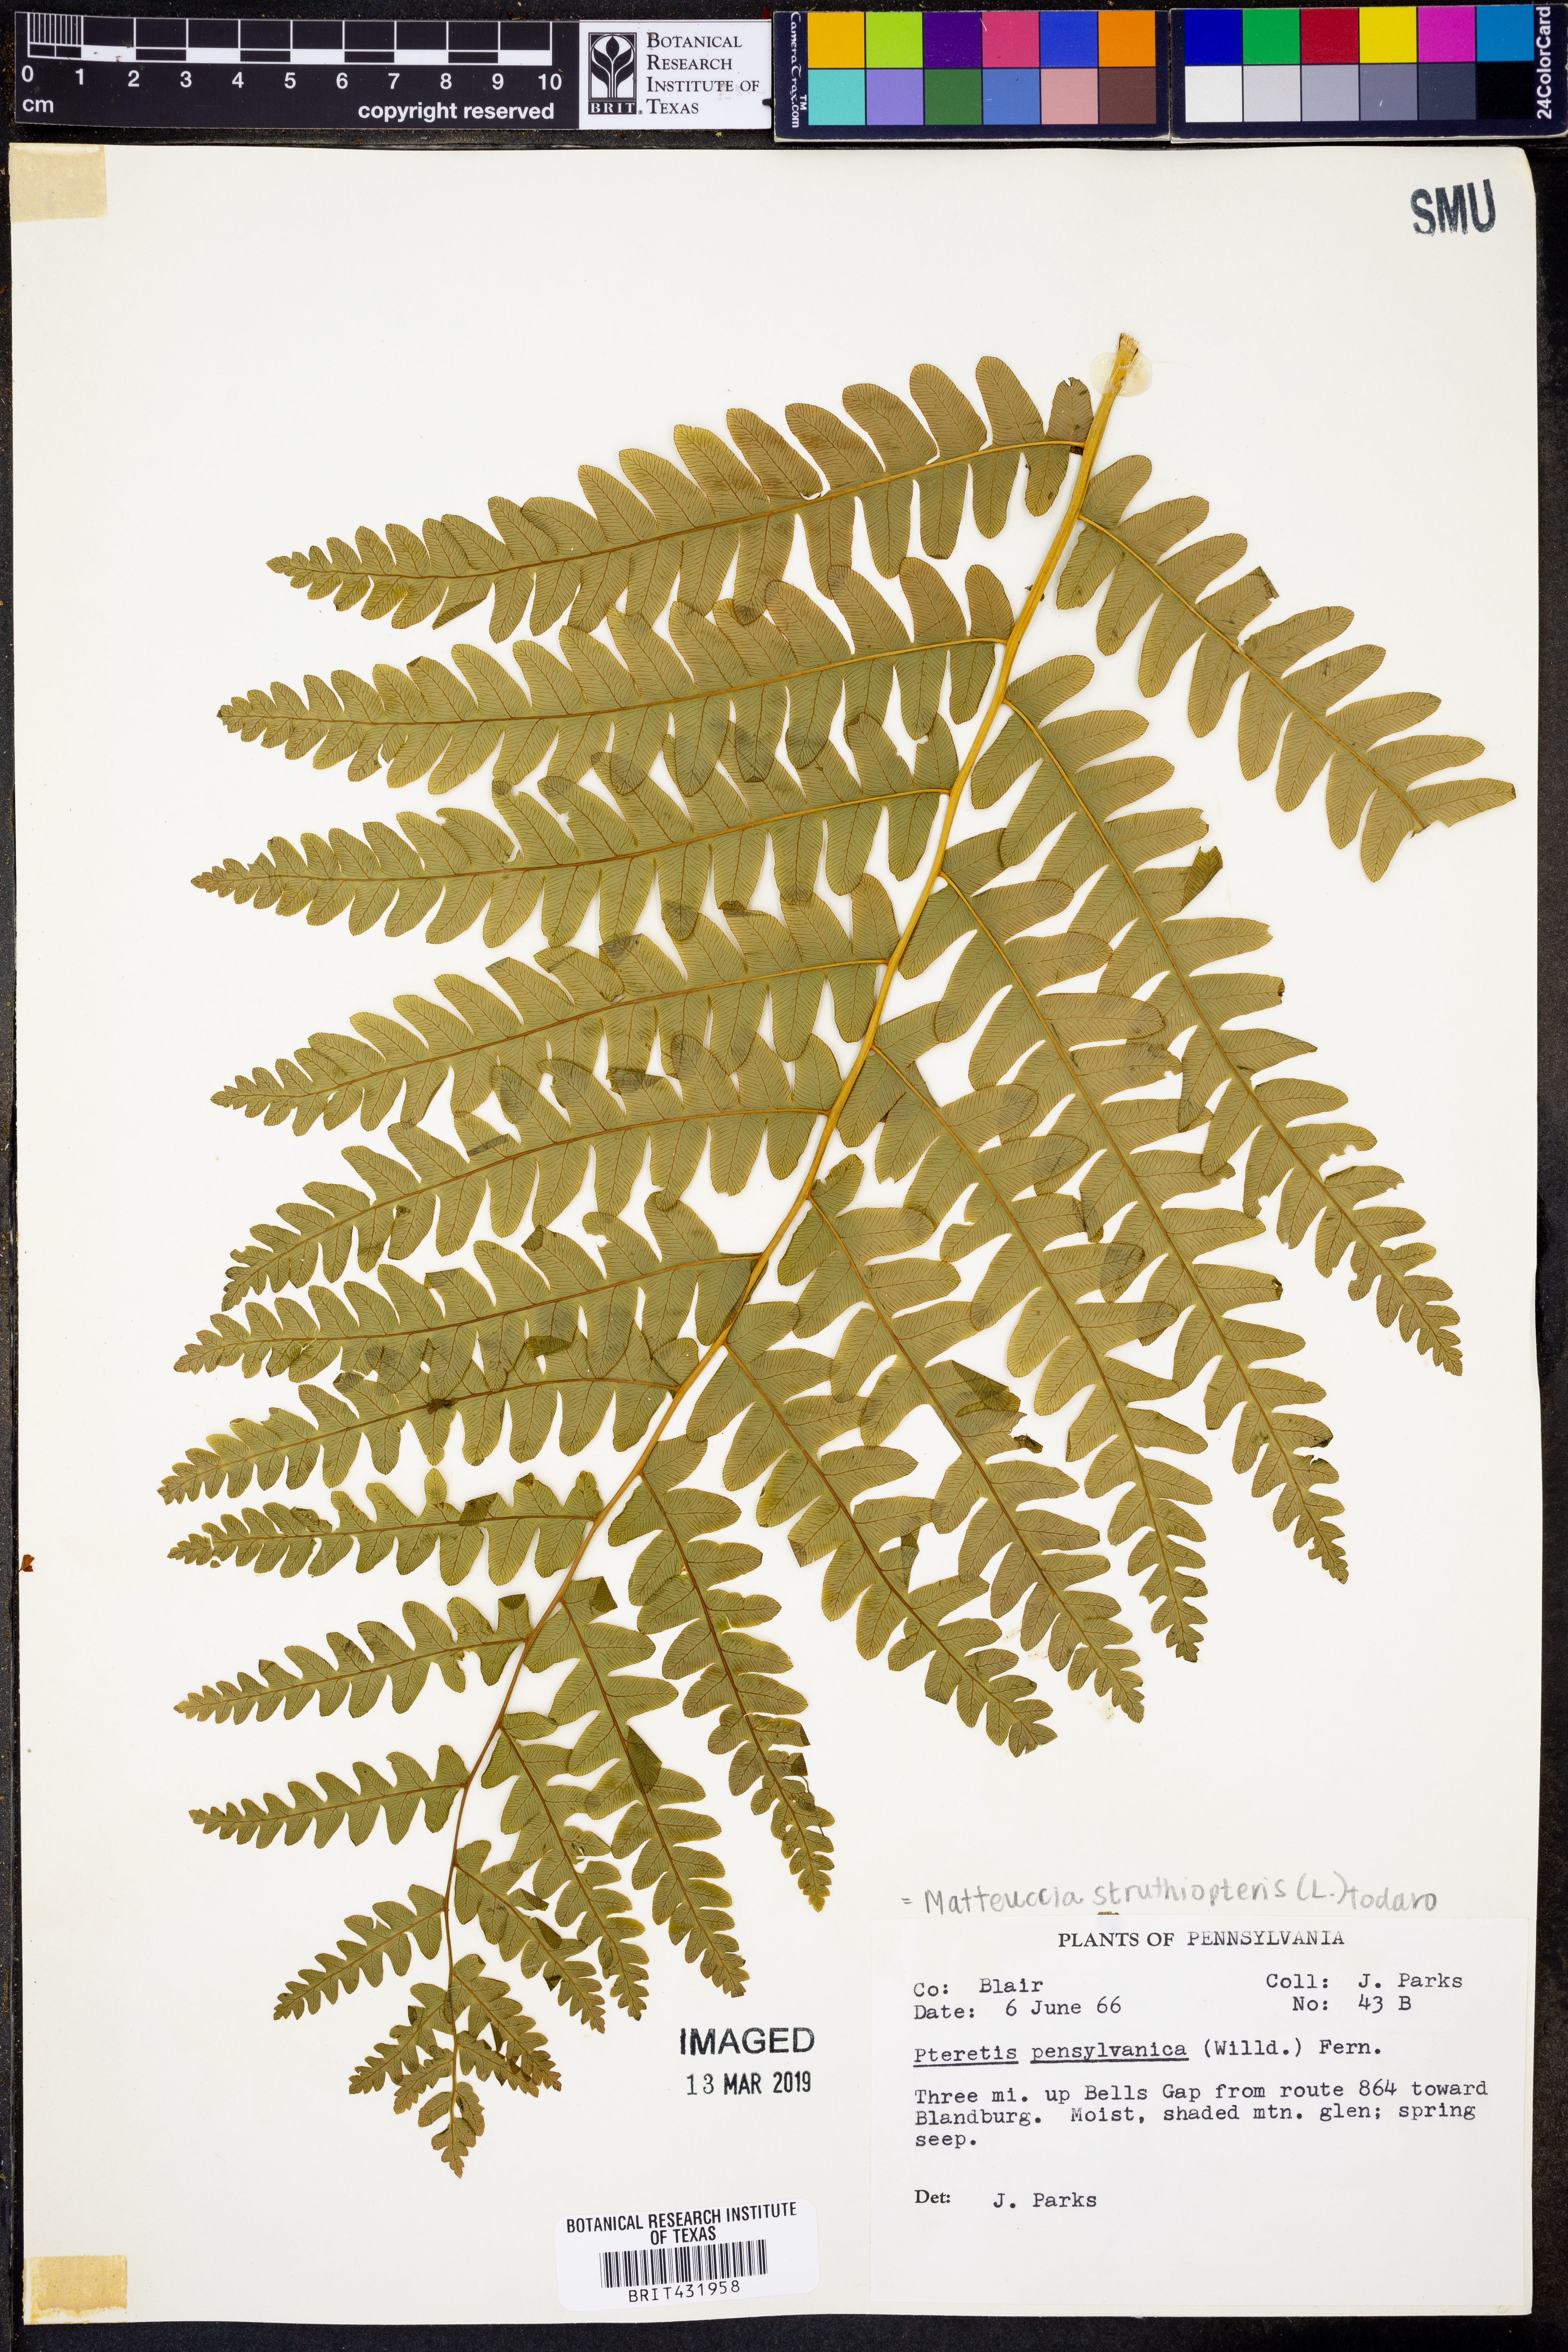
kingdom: Plantae
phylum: Tracheophyta
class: Polypodiopsida
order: Polypodiales
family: Onocleaceae
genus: Matteuccia
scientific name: Matteuccia struthiopteris
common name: Ostrich fern
